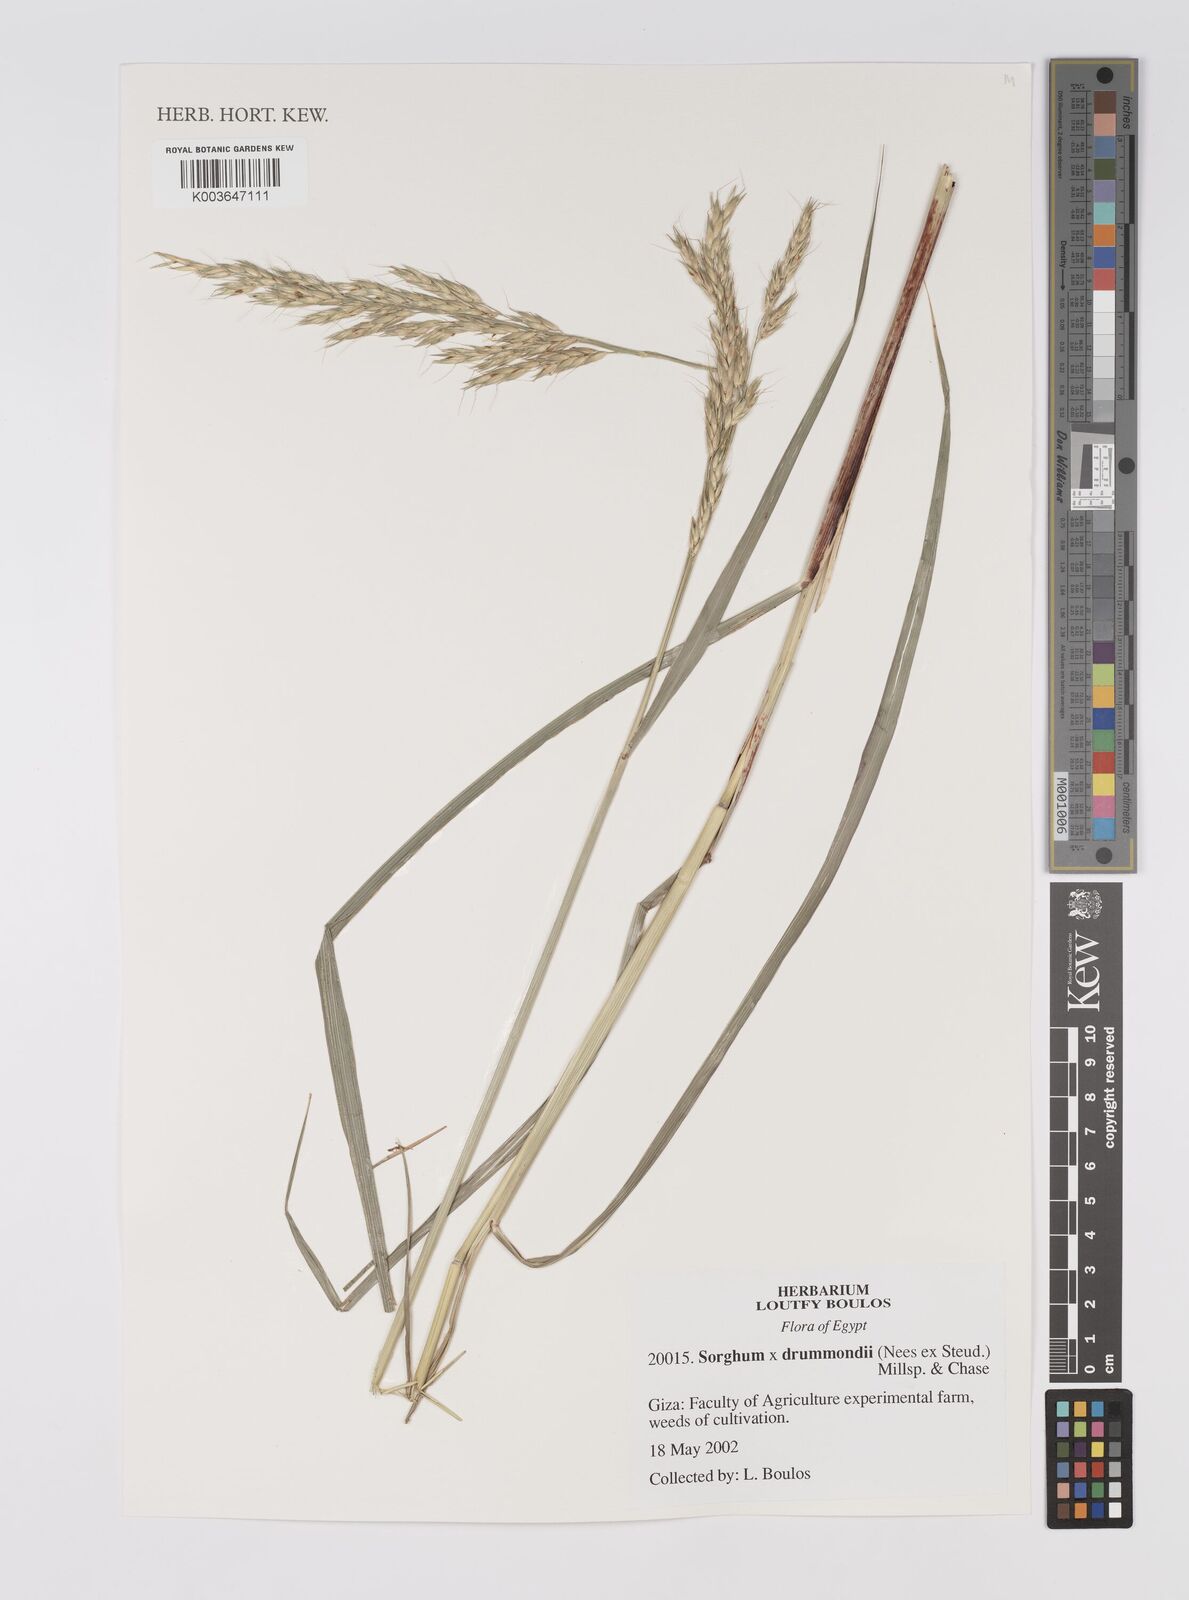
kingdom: Plantae
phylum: Tracheophyta
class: Liliopsida
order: Poales
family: Poaceae
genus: Sorghum
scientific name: Sorghum drummondii
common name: Sudangrass
